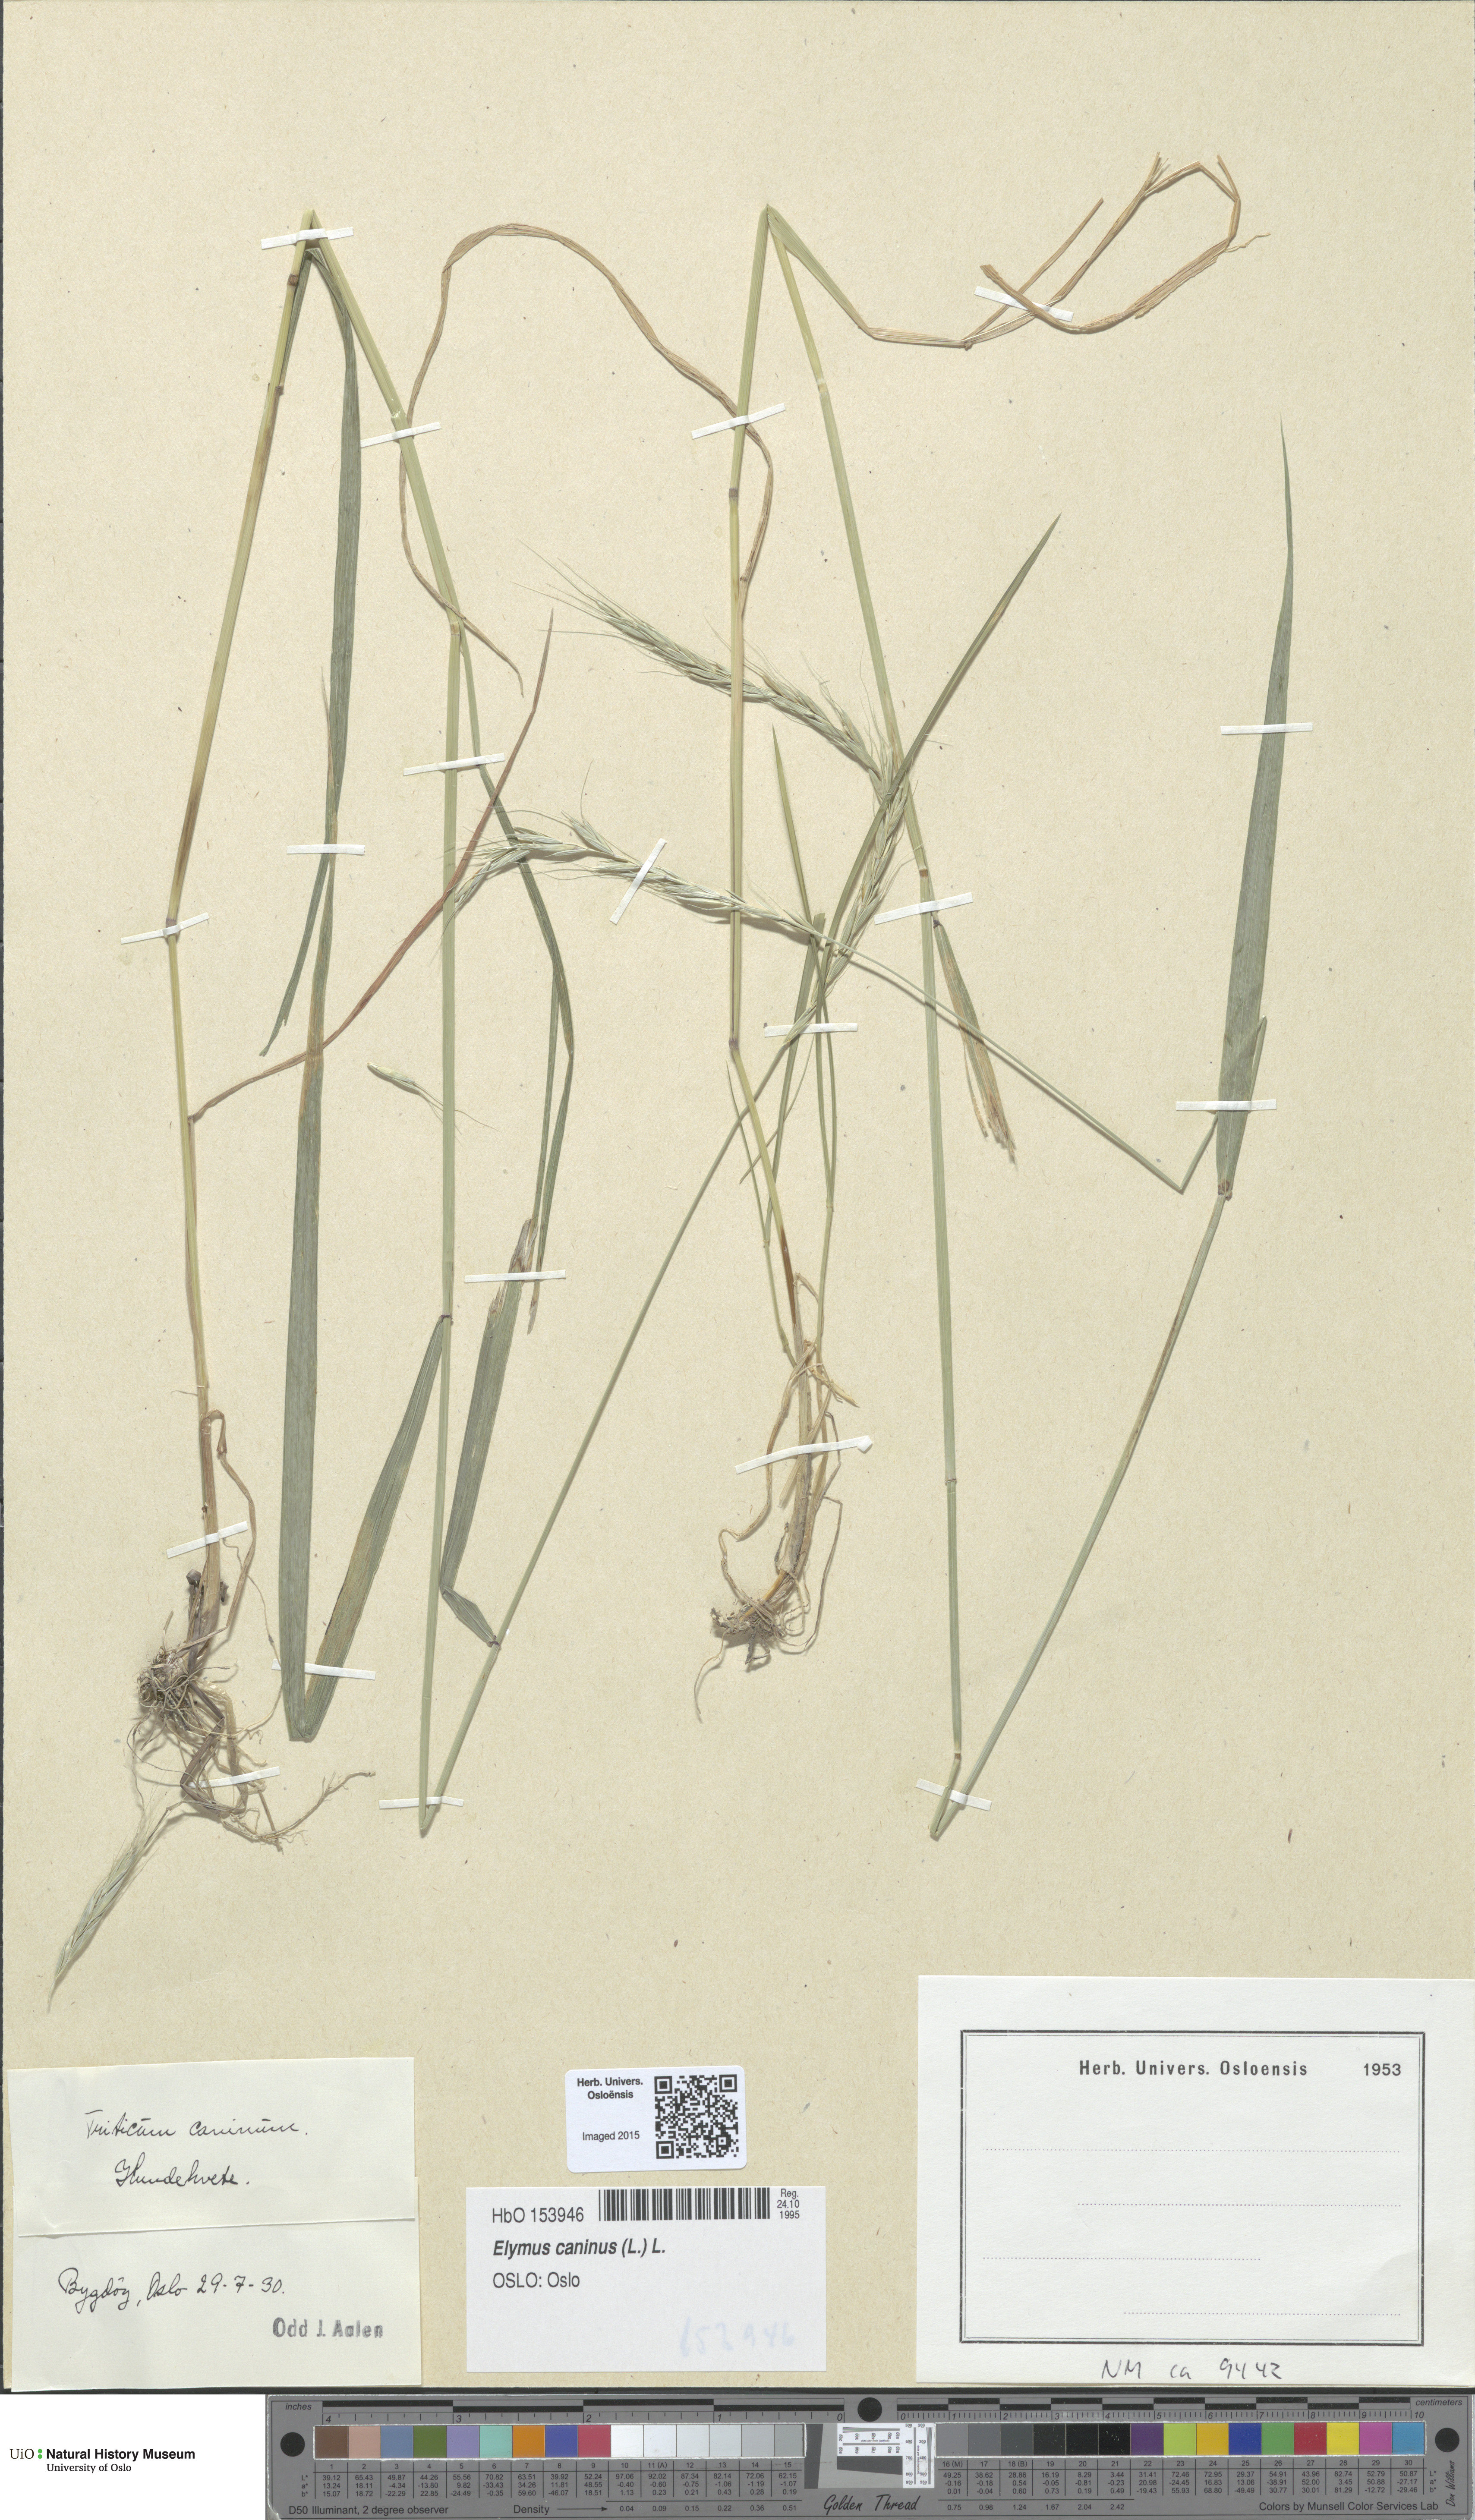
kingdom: Plantae
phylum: Tracheophyta
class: Liliopsida
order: Poales
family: Poaceae
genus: Elymus
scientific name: Elymus caninus
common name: Bearded couch
